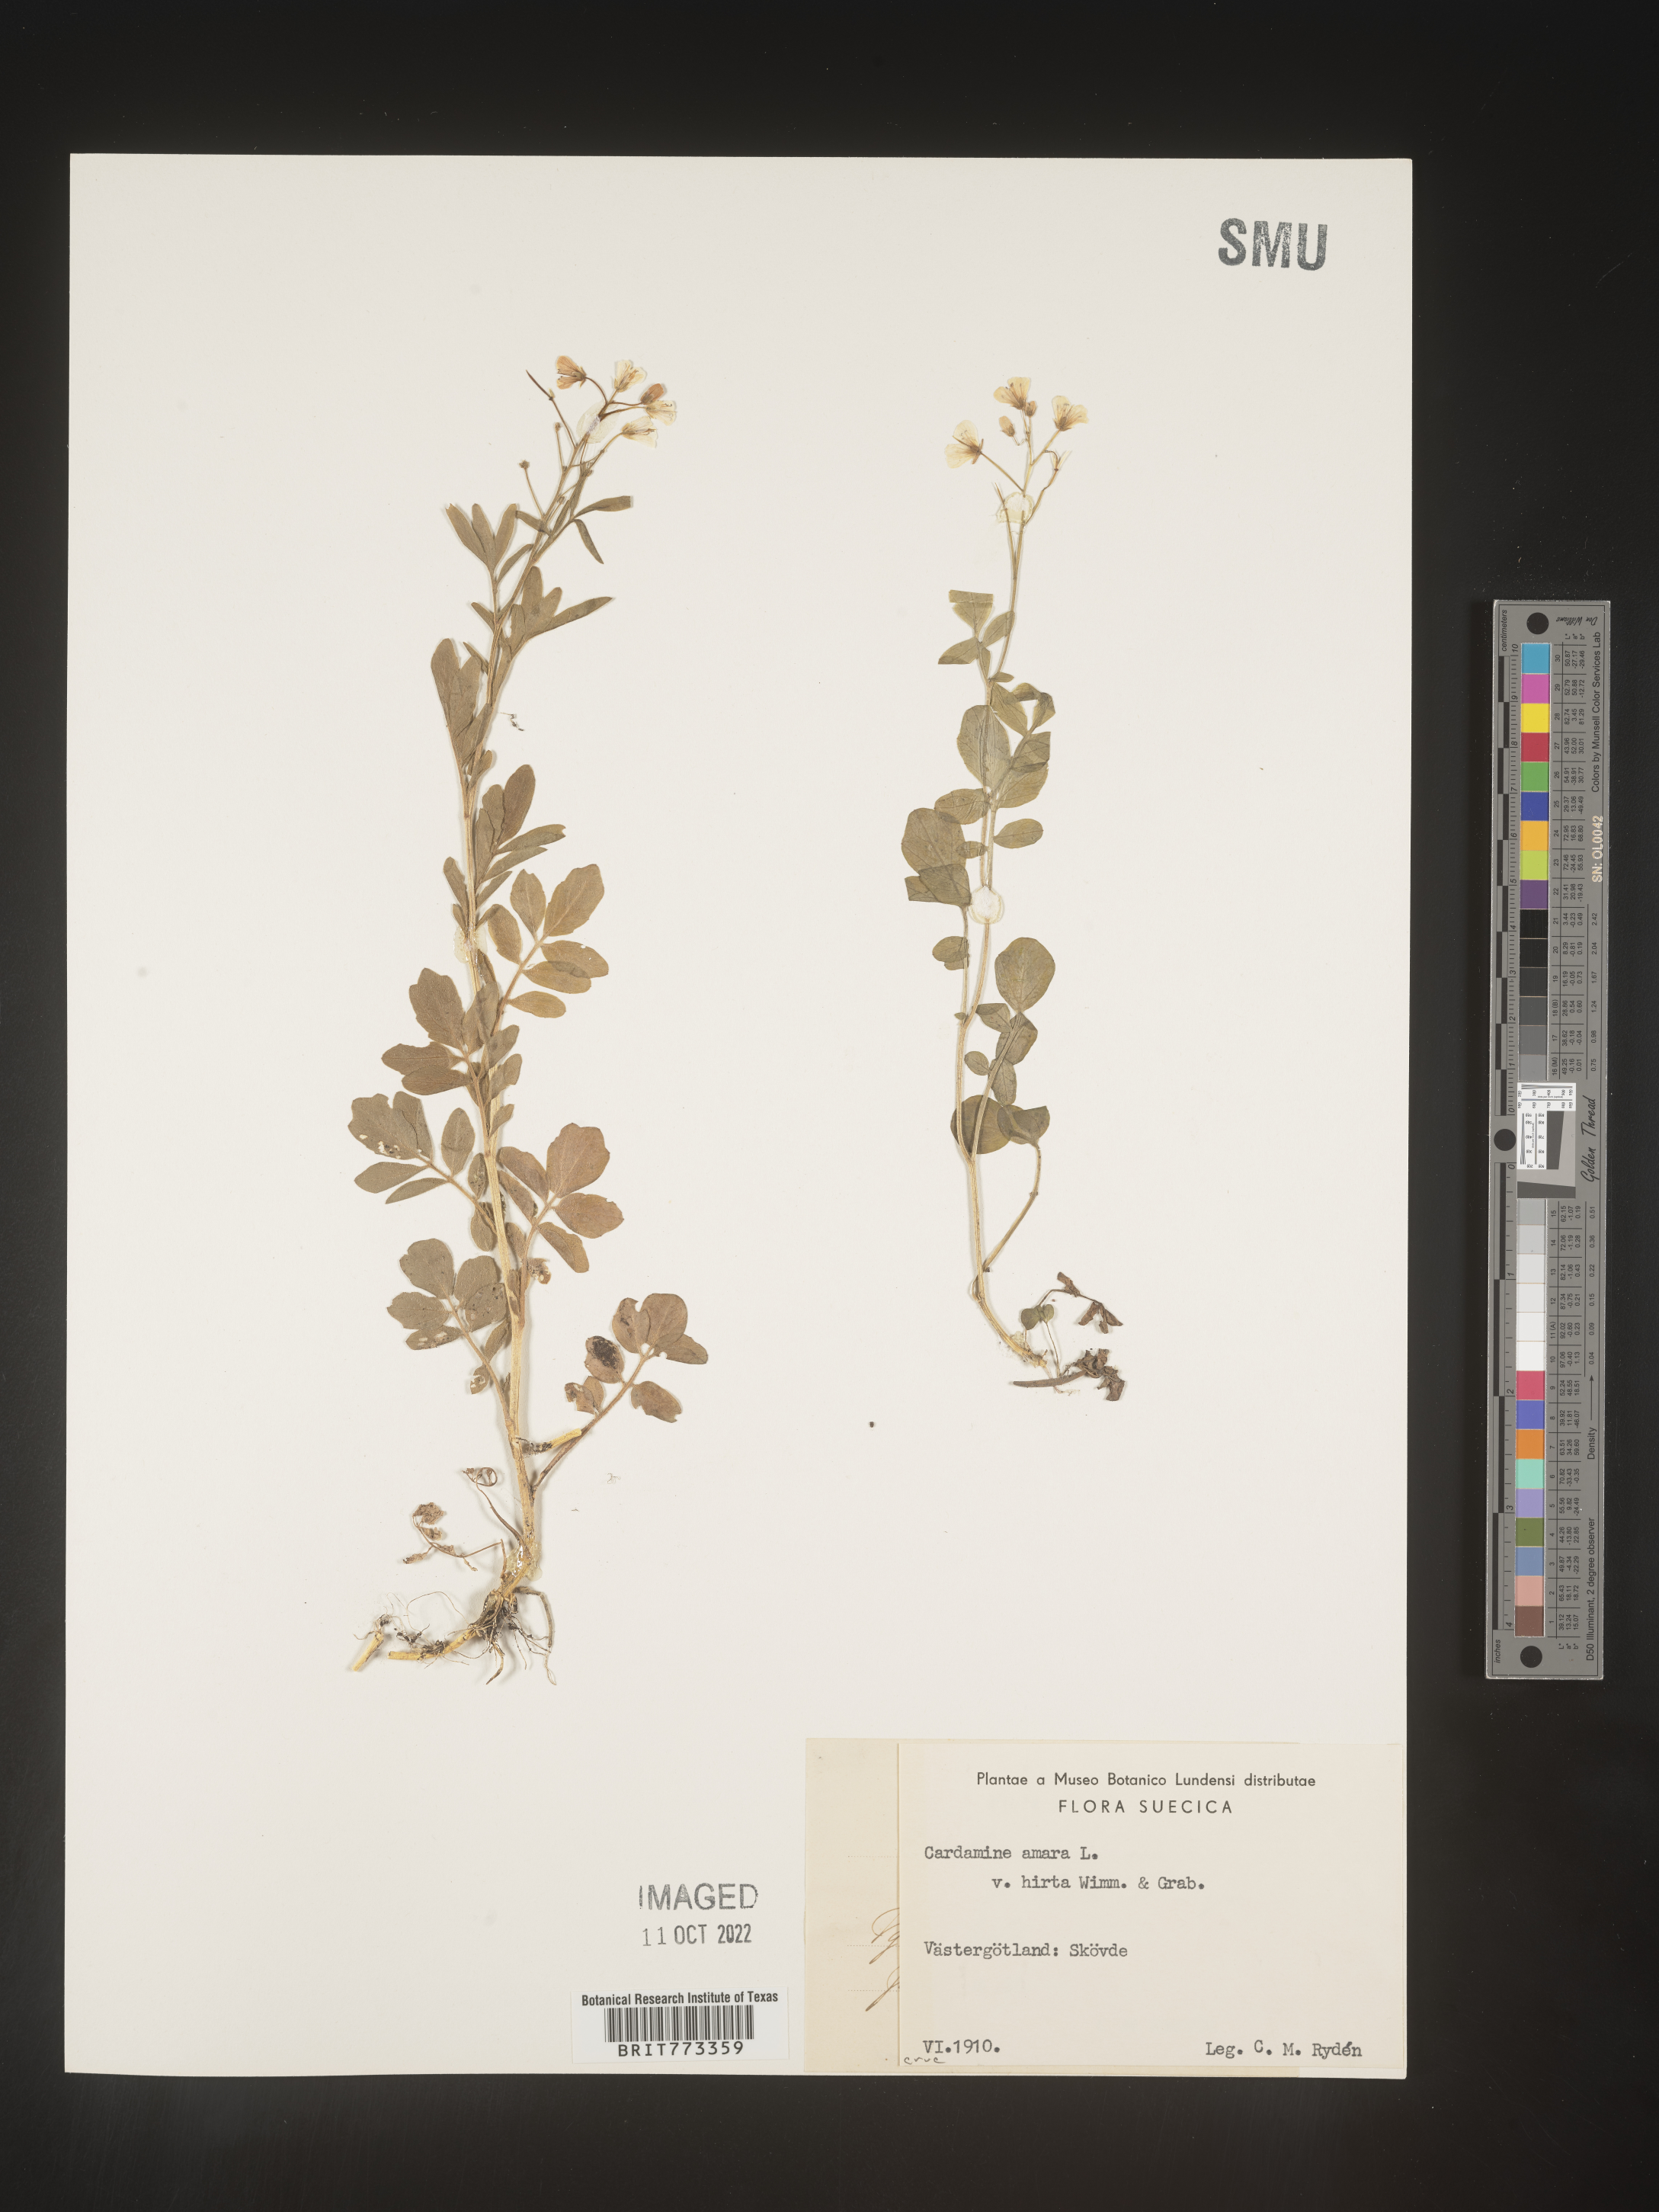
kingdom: Plantae
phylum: Tracheophyta
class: Magnoliopsida
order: Brassicales
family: Brassicaceae
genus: Cardamine
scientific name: Cardamine
